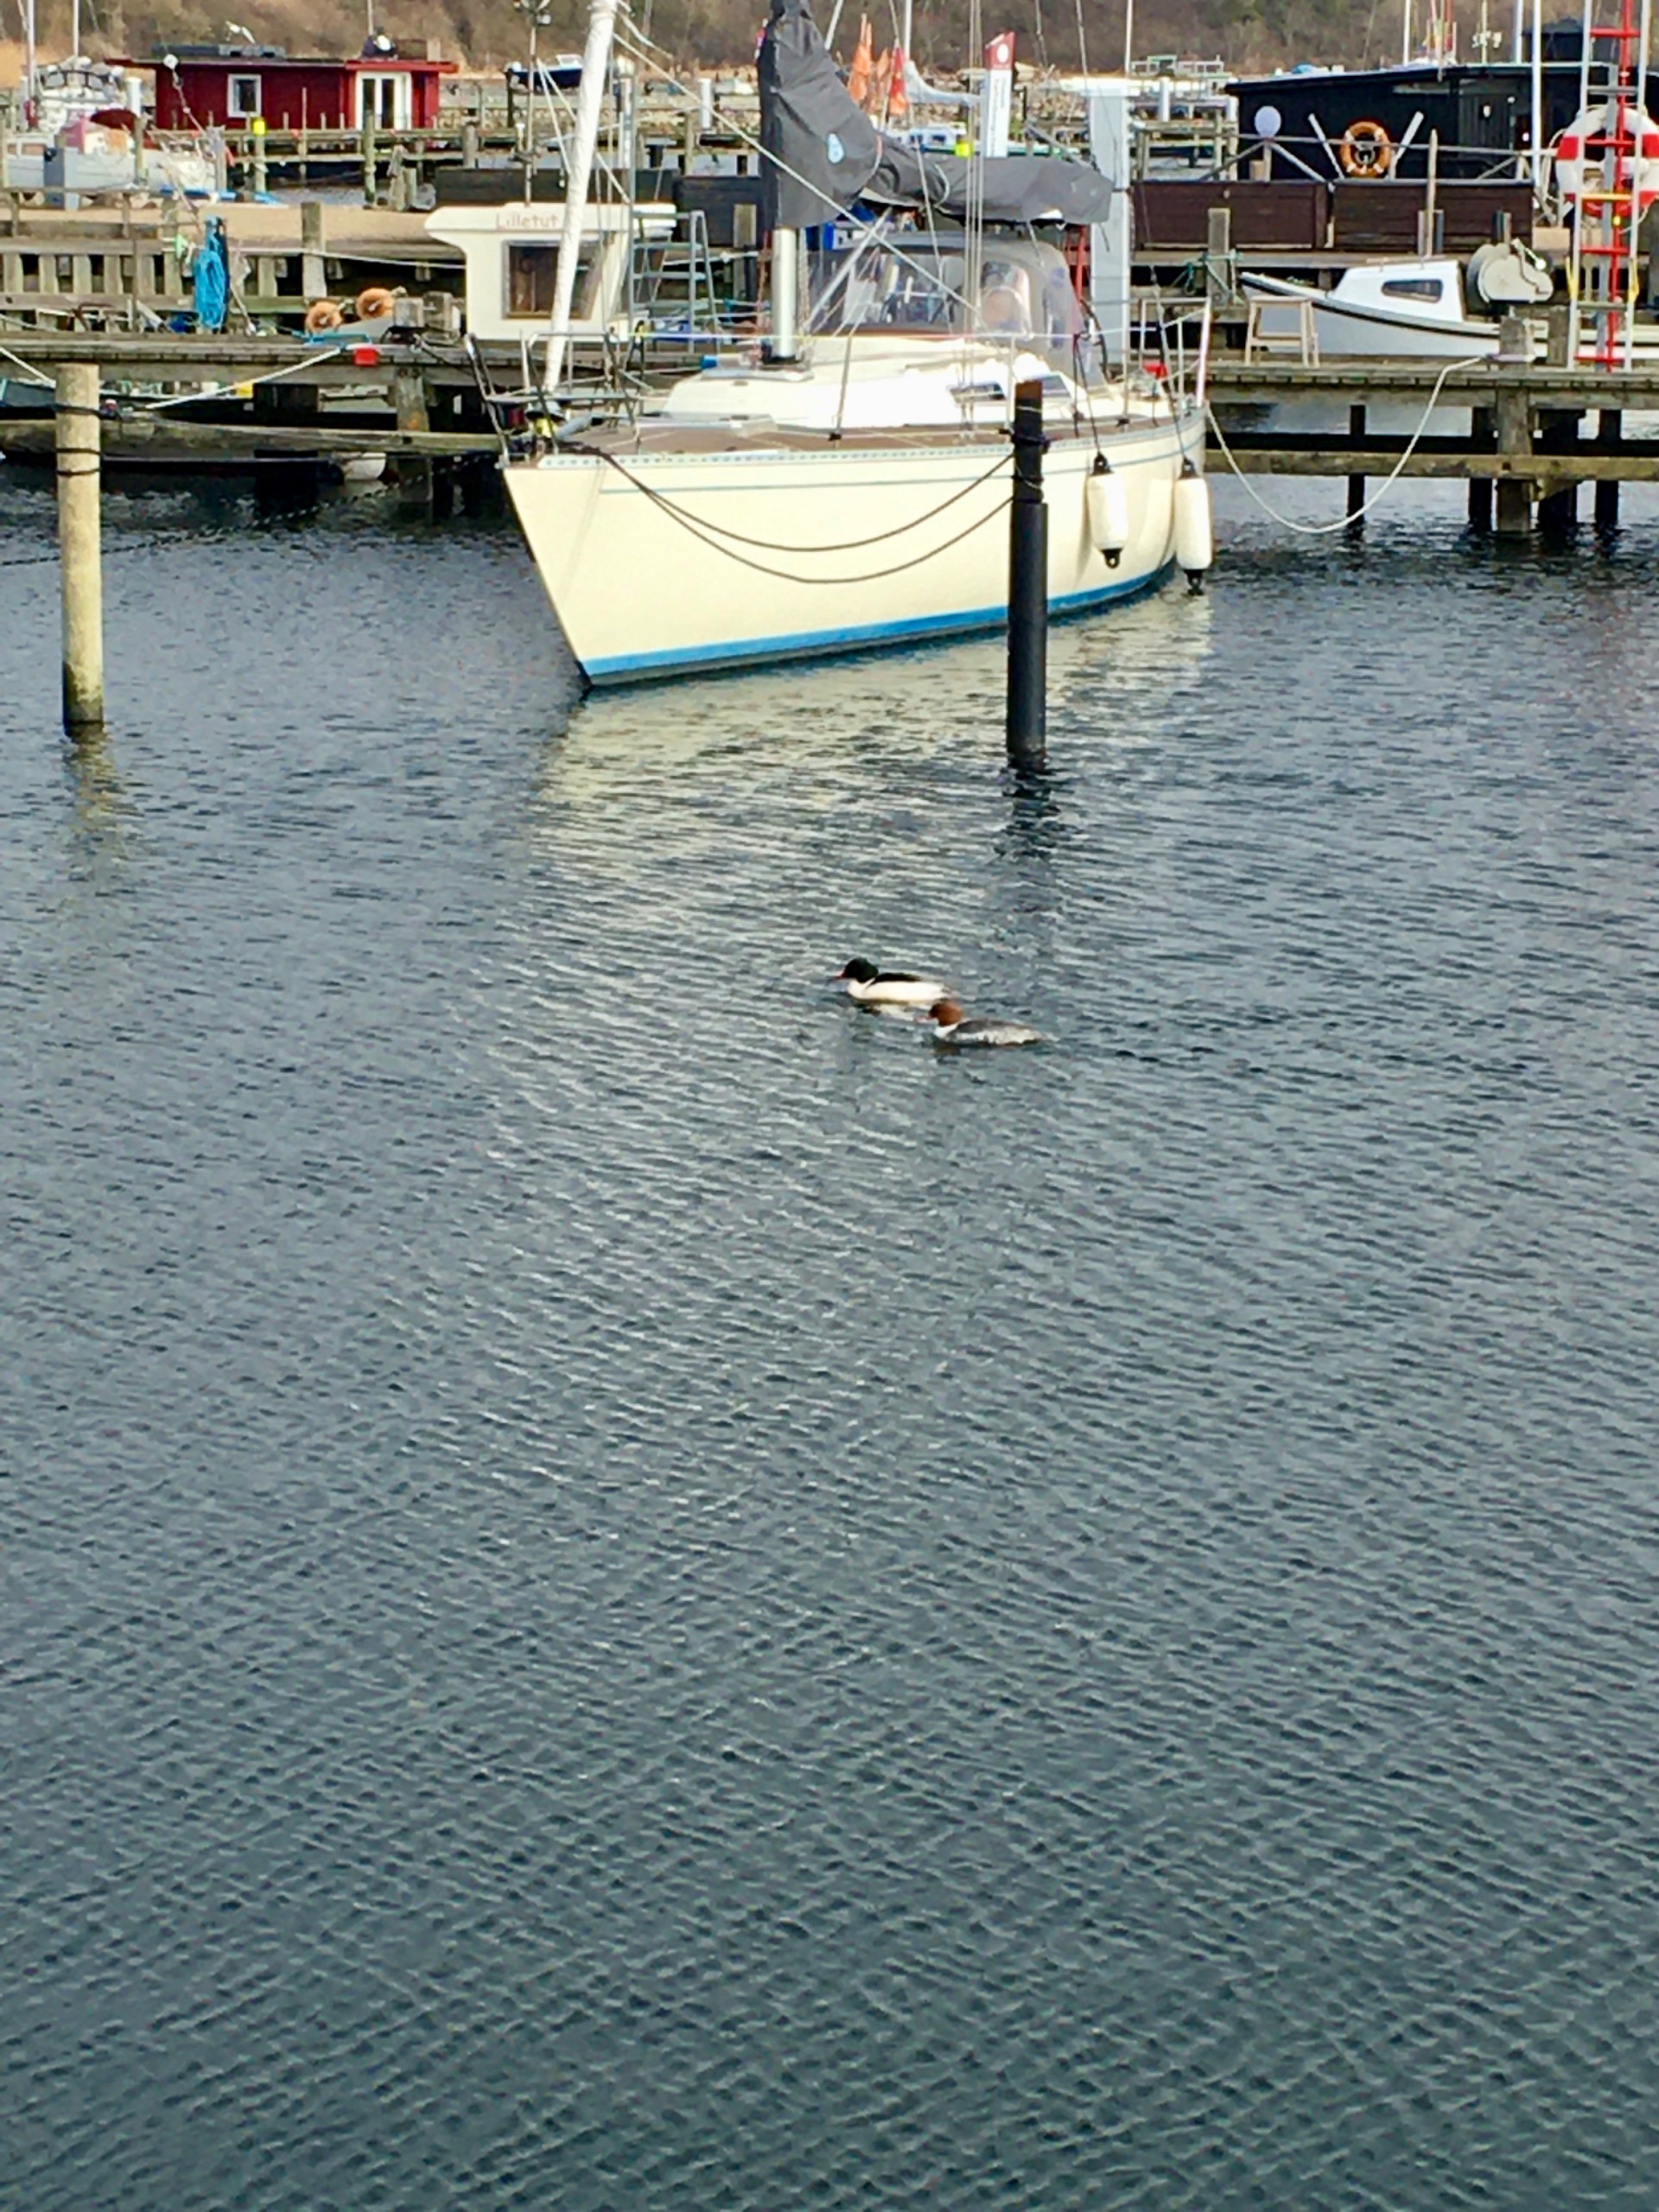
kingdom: Animalia
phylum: Chordata
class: Aves
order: Anseriformes
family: Anatidae
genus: Mergus
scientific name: Mergus merganser
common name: Stor skallesluger
